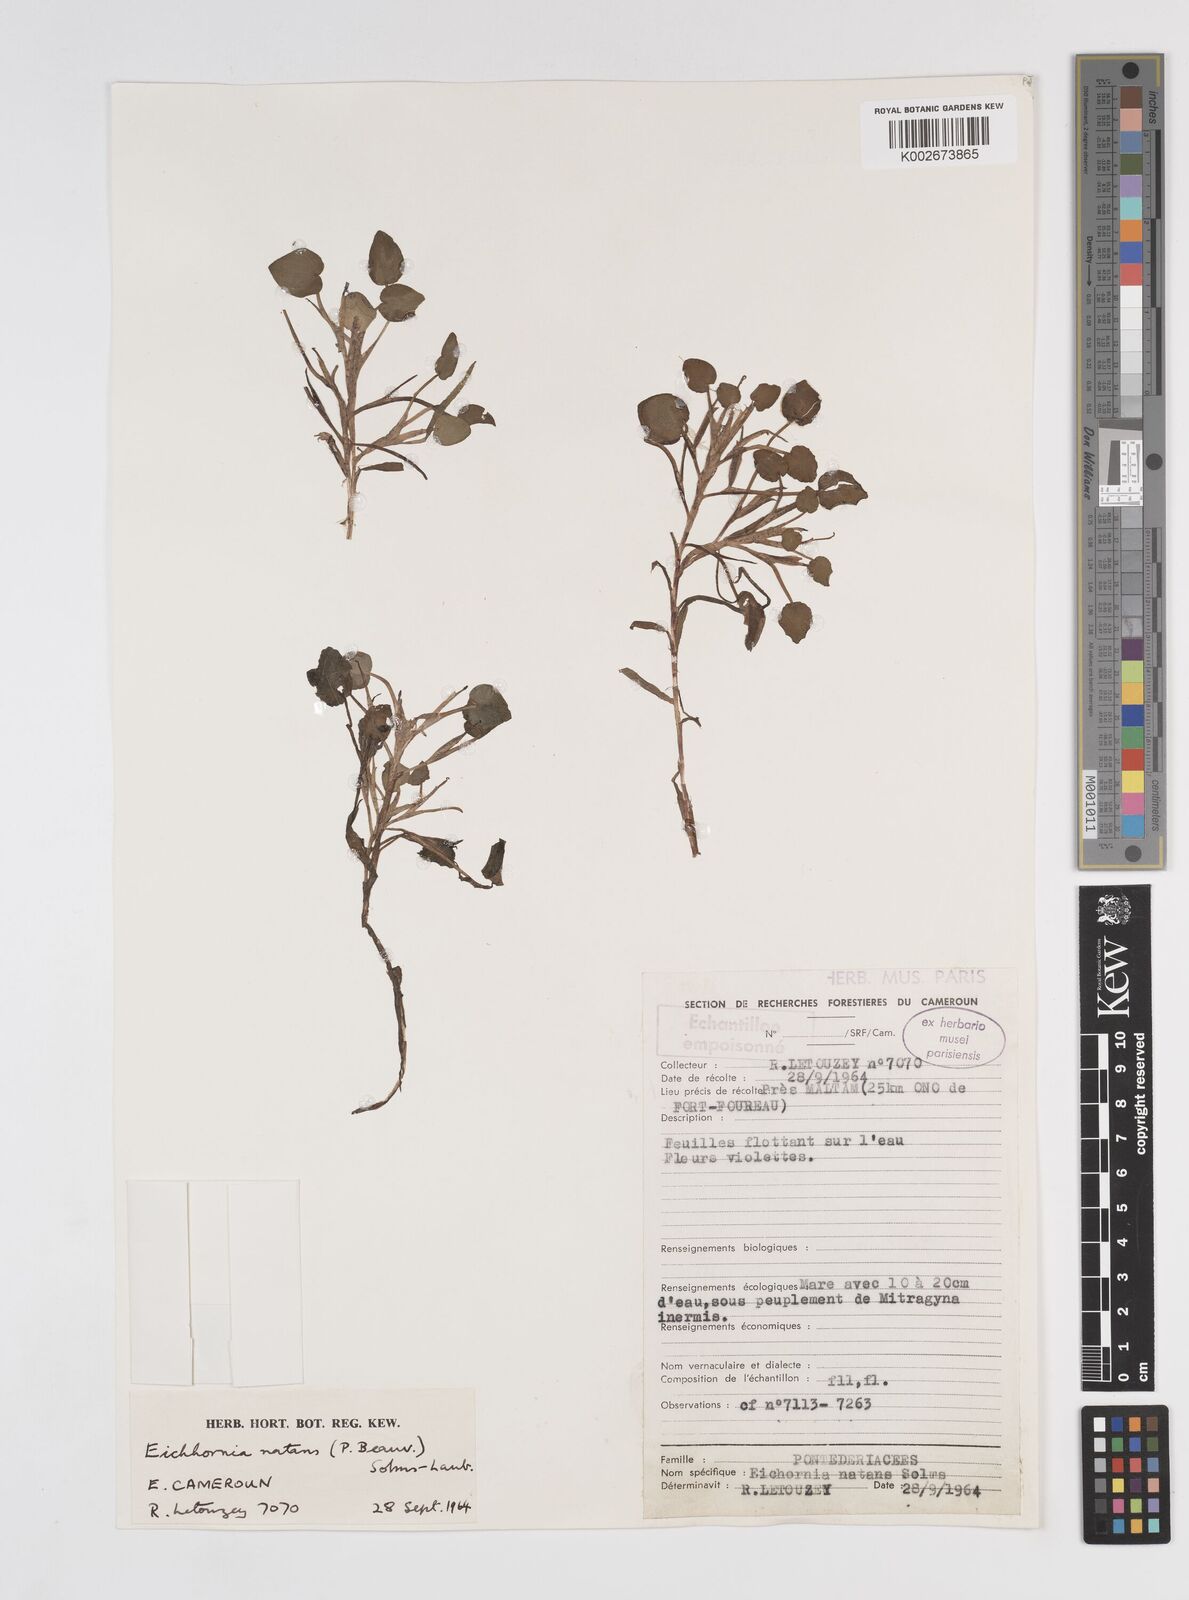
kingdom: Plantae
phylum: Tracheophyta
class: Liliopsida
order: Commelinales
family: Pontederiaceae
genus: Pontederia
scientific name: Pontederia natans
